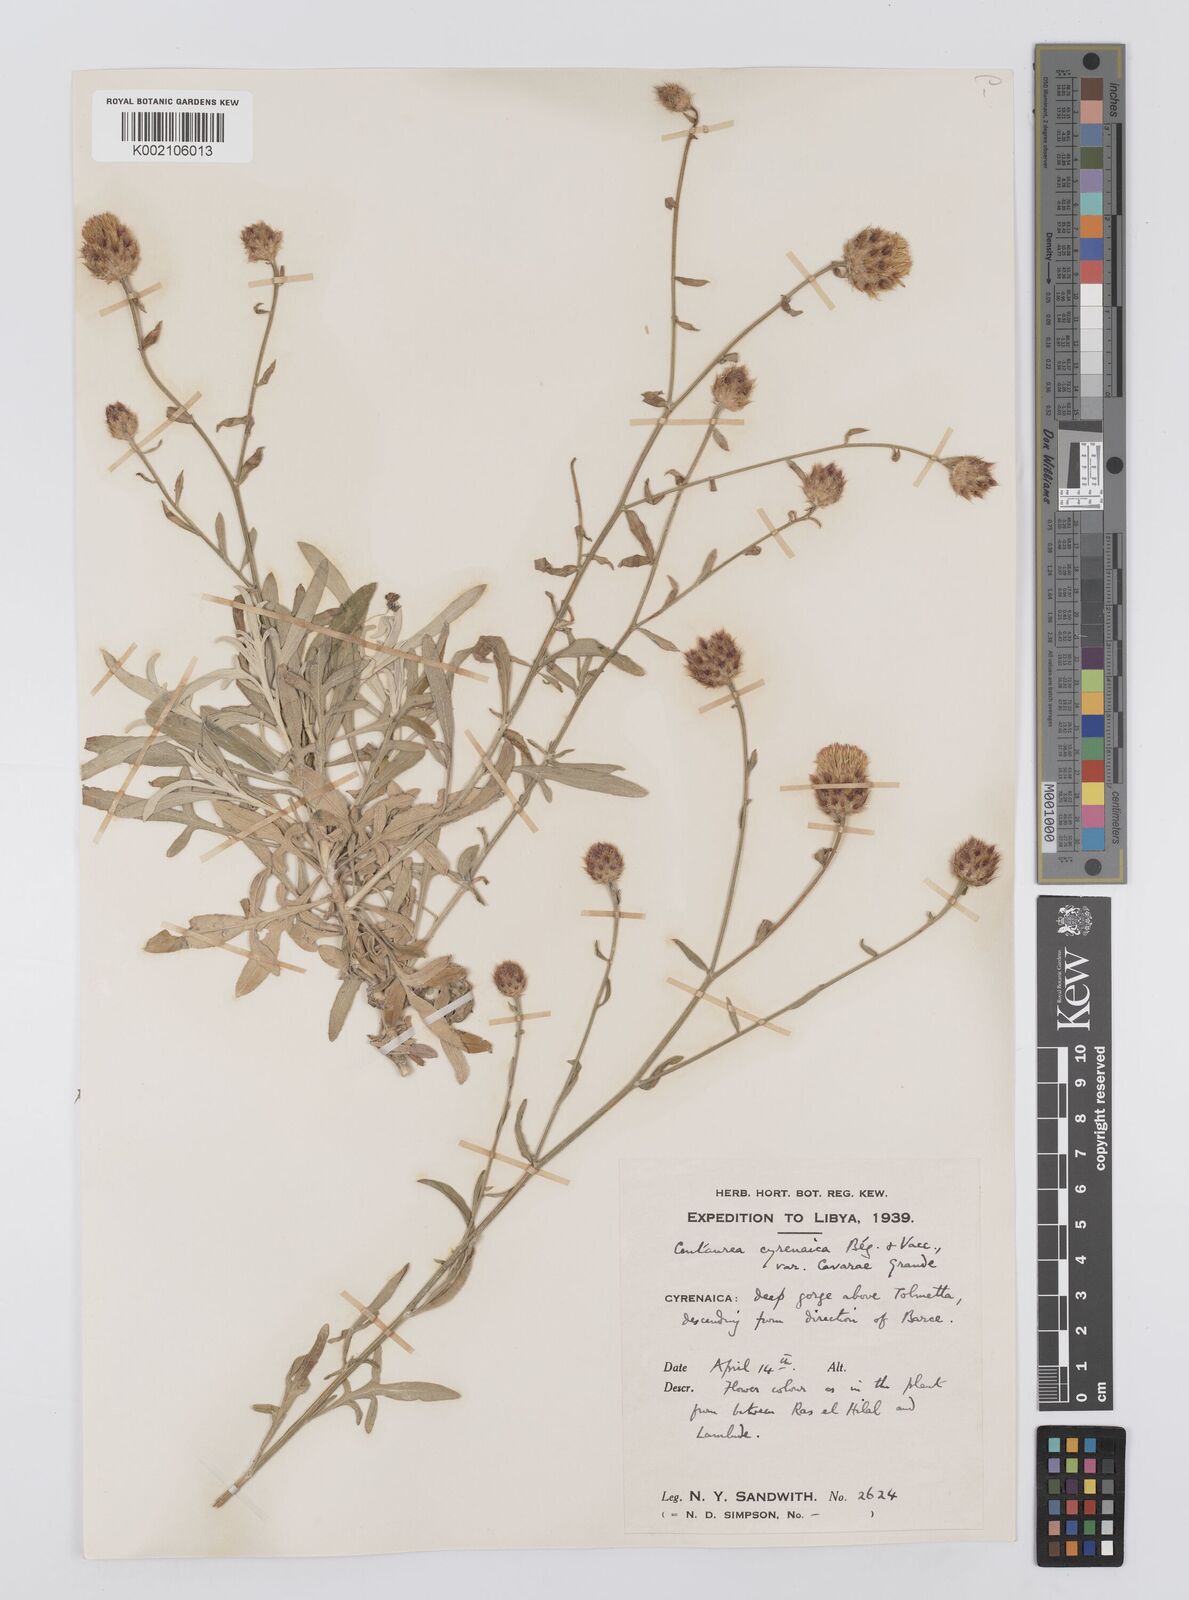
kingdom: Plantae
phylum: Tracheophyta
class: Magnoliopsida
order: Asterales
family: Asteraceae
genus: Centaurea
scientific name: Centaurea cyrenaica
